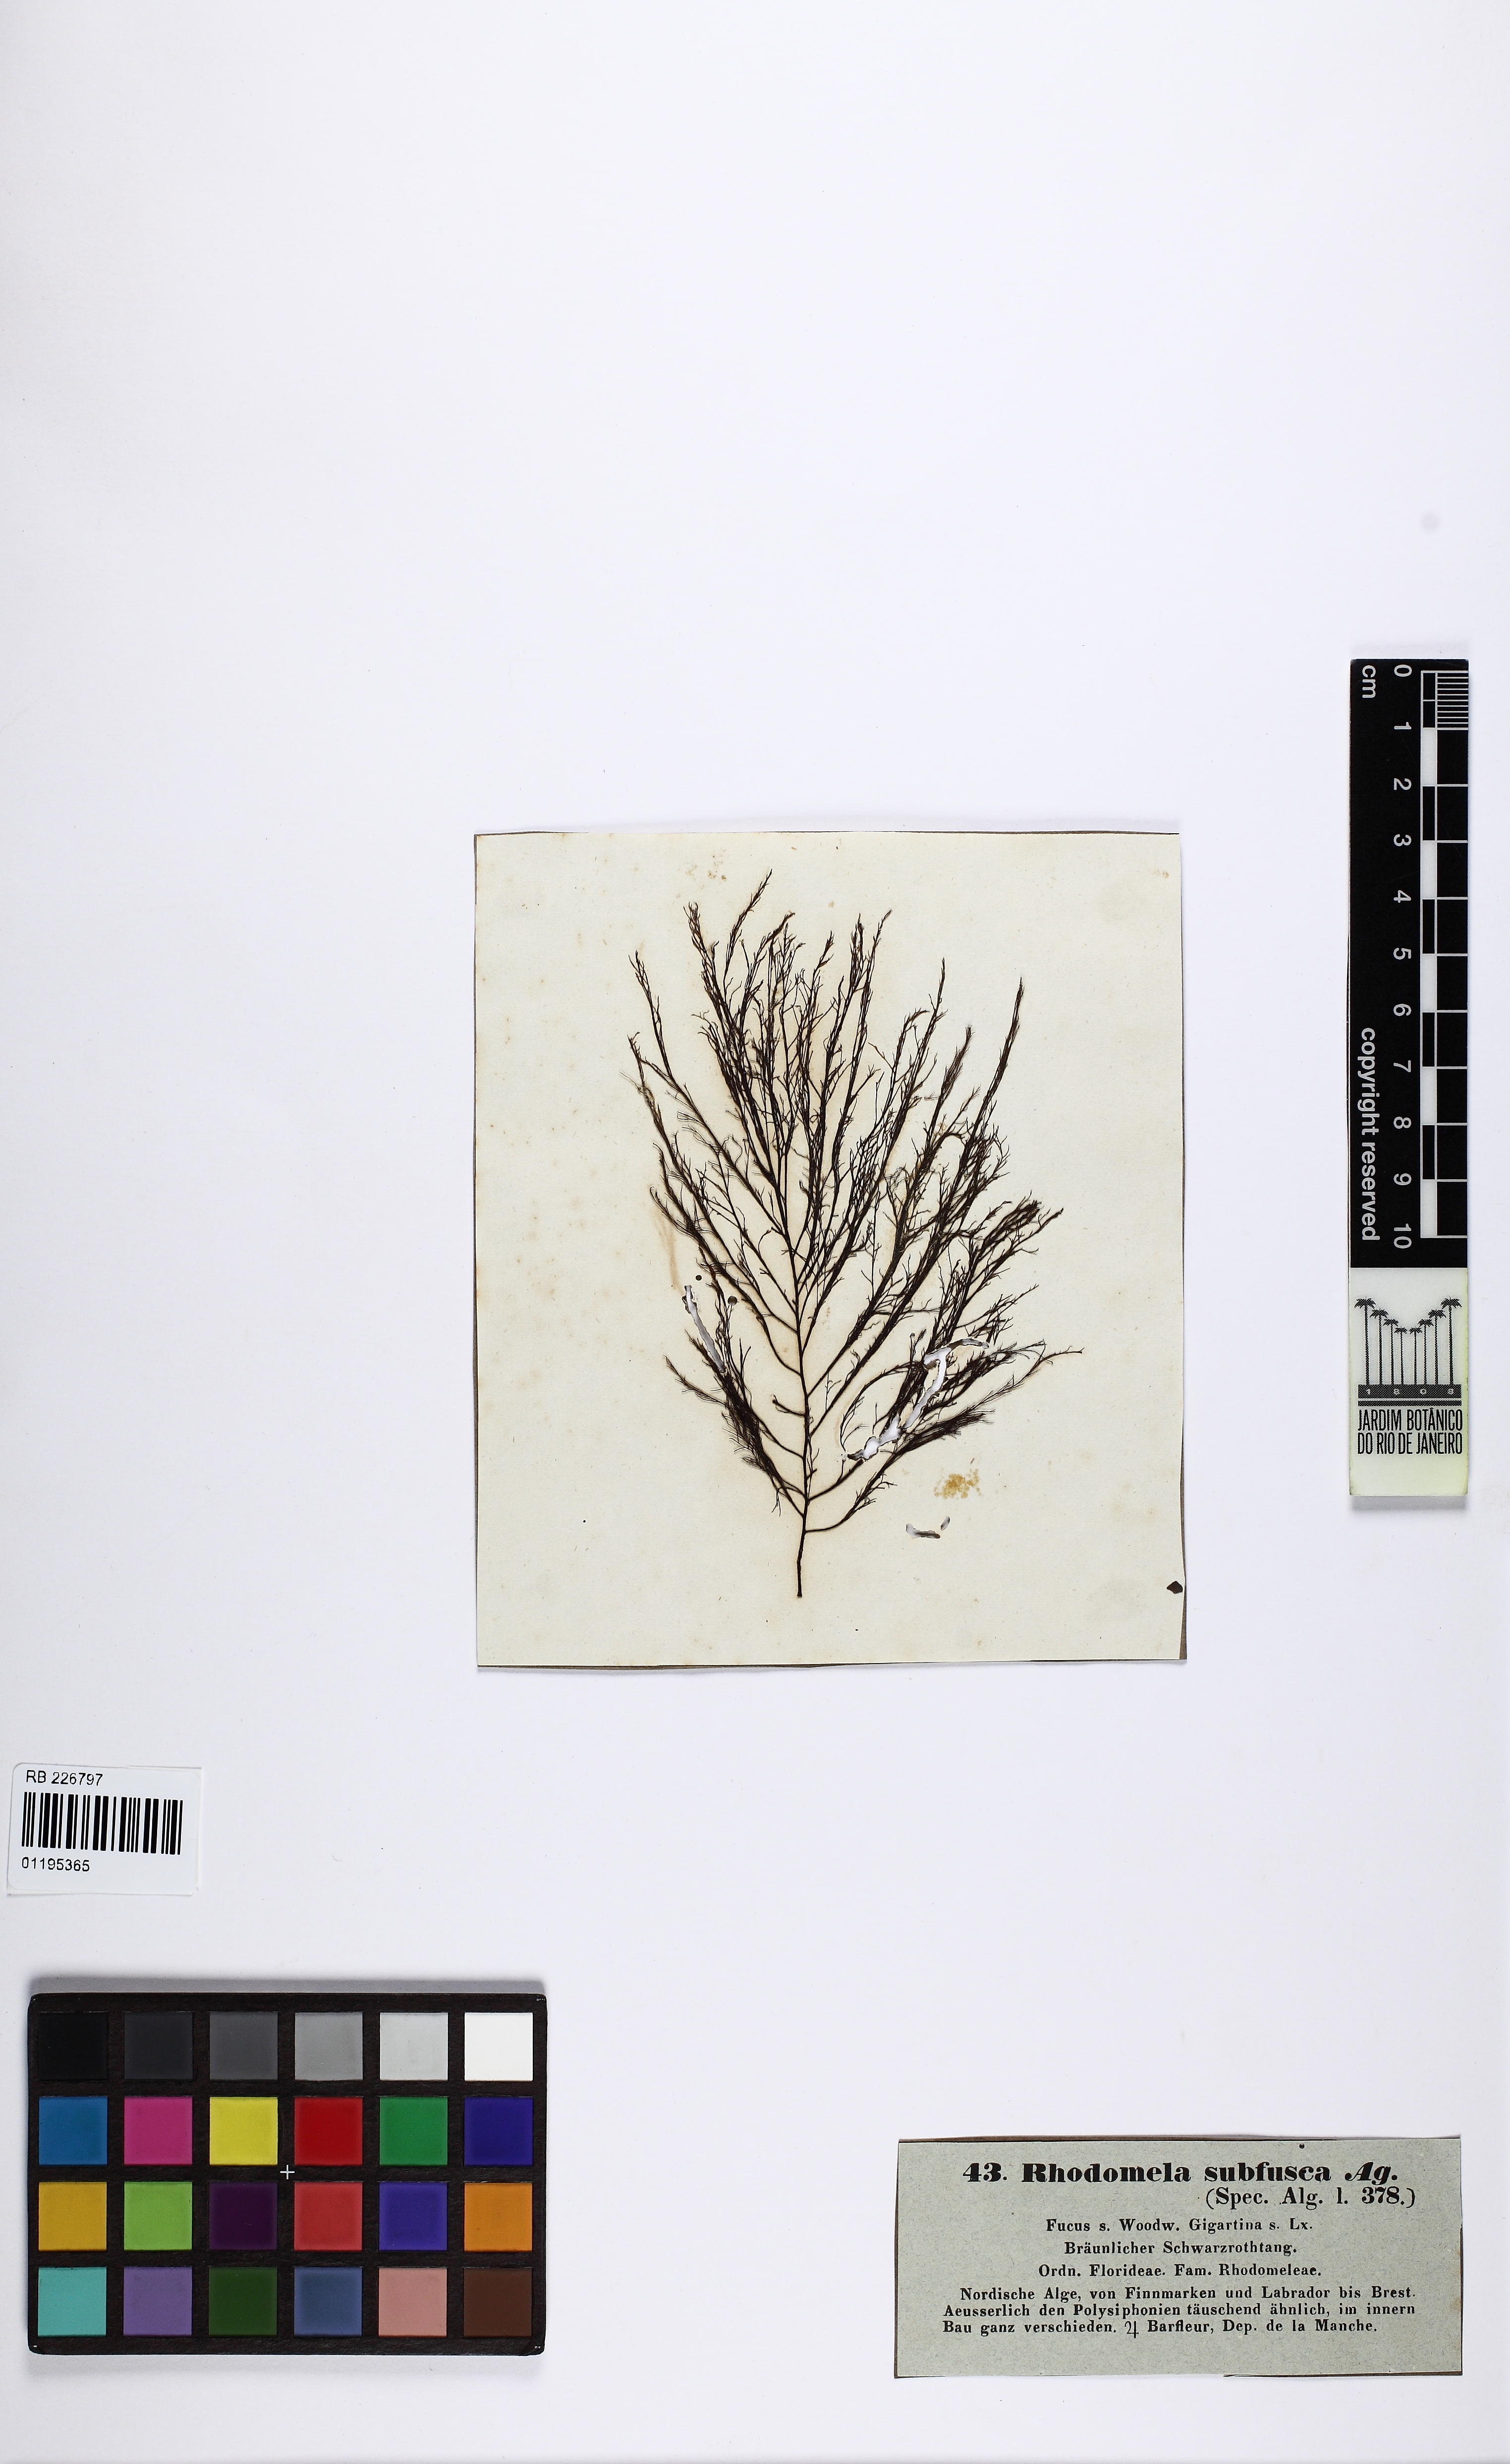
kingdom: Plantae
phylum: Rhodophyta
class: Florideophyceae
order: Ceramiales
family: Rhodomelaceae
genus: Rhodomela
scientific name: Rhodomela confervoides
